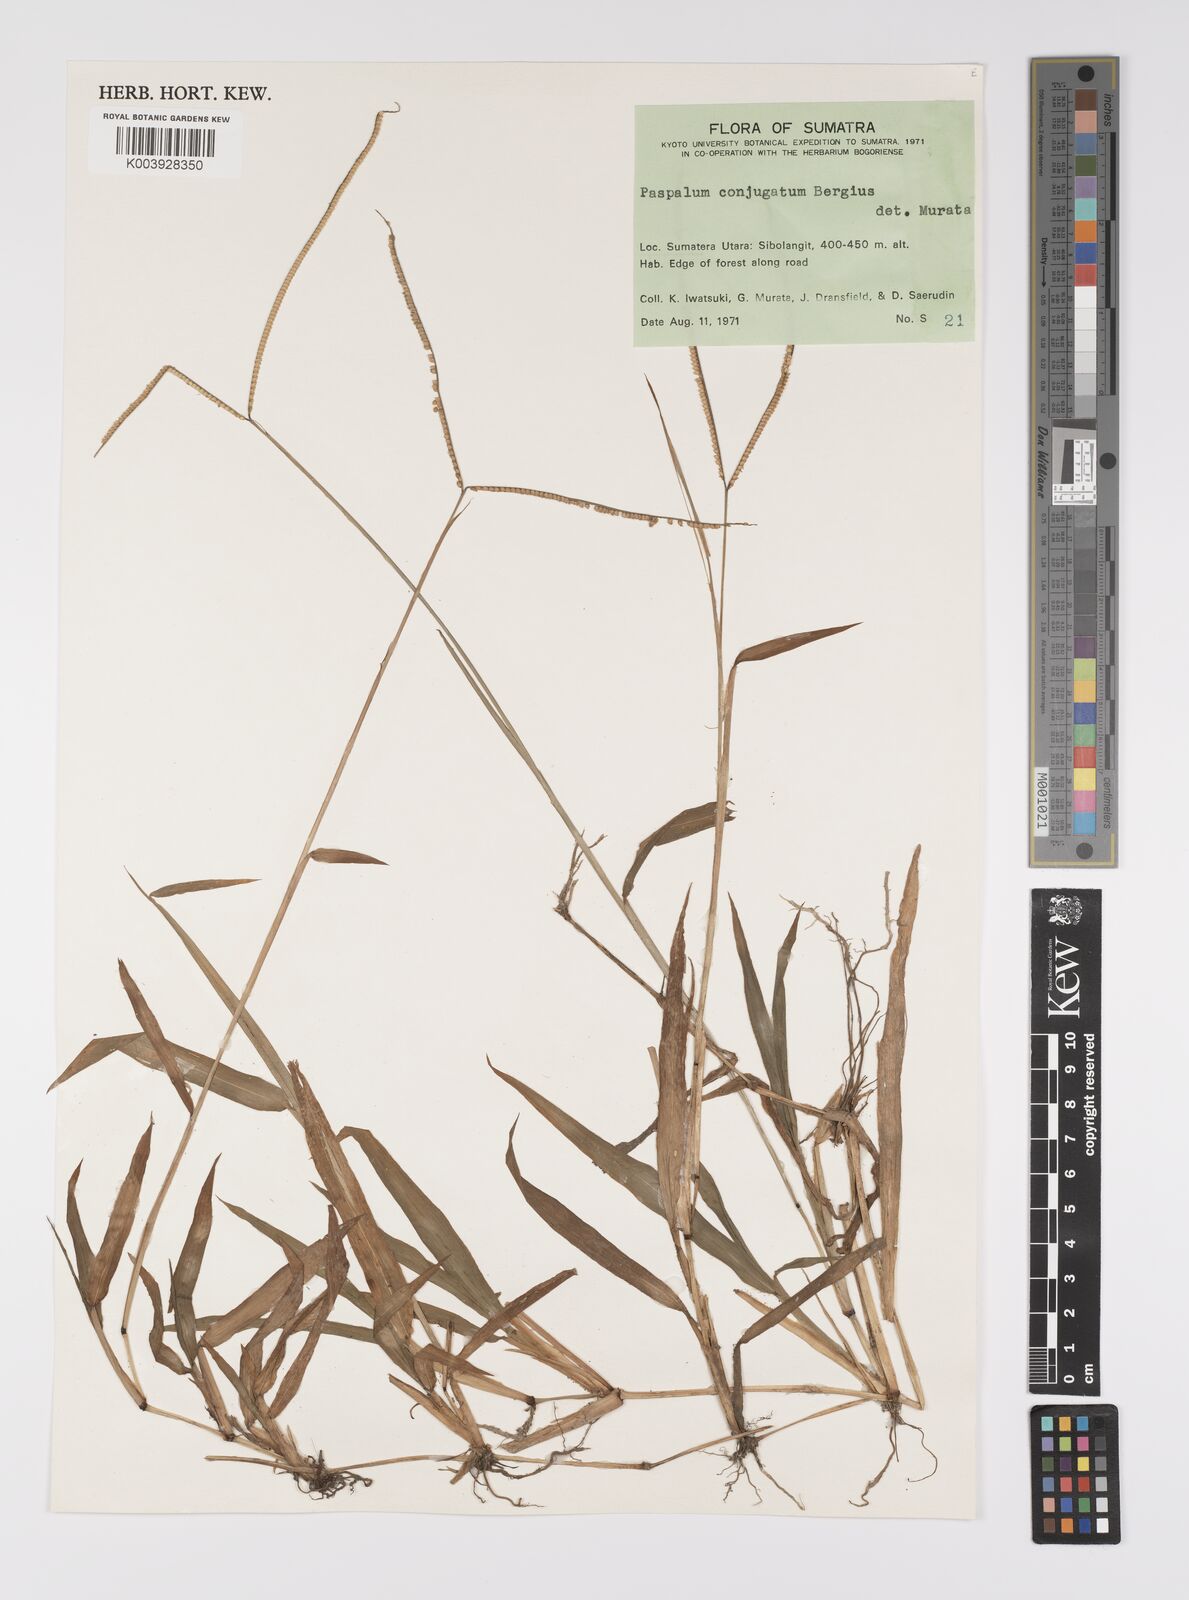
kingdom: Plantae
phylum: Tracheophyta
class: Liliopsida
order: Poales
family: Poaceae
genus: Paspalum
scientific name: Paspalum conjugatum
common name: Hilograss
